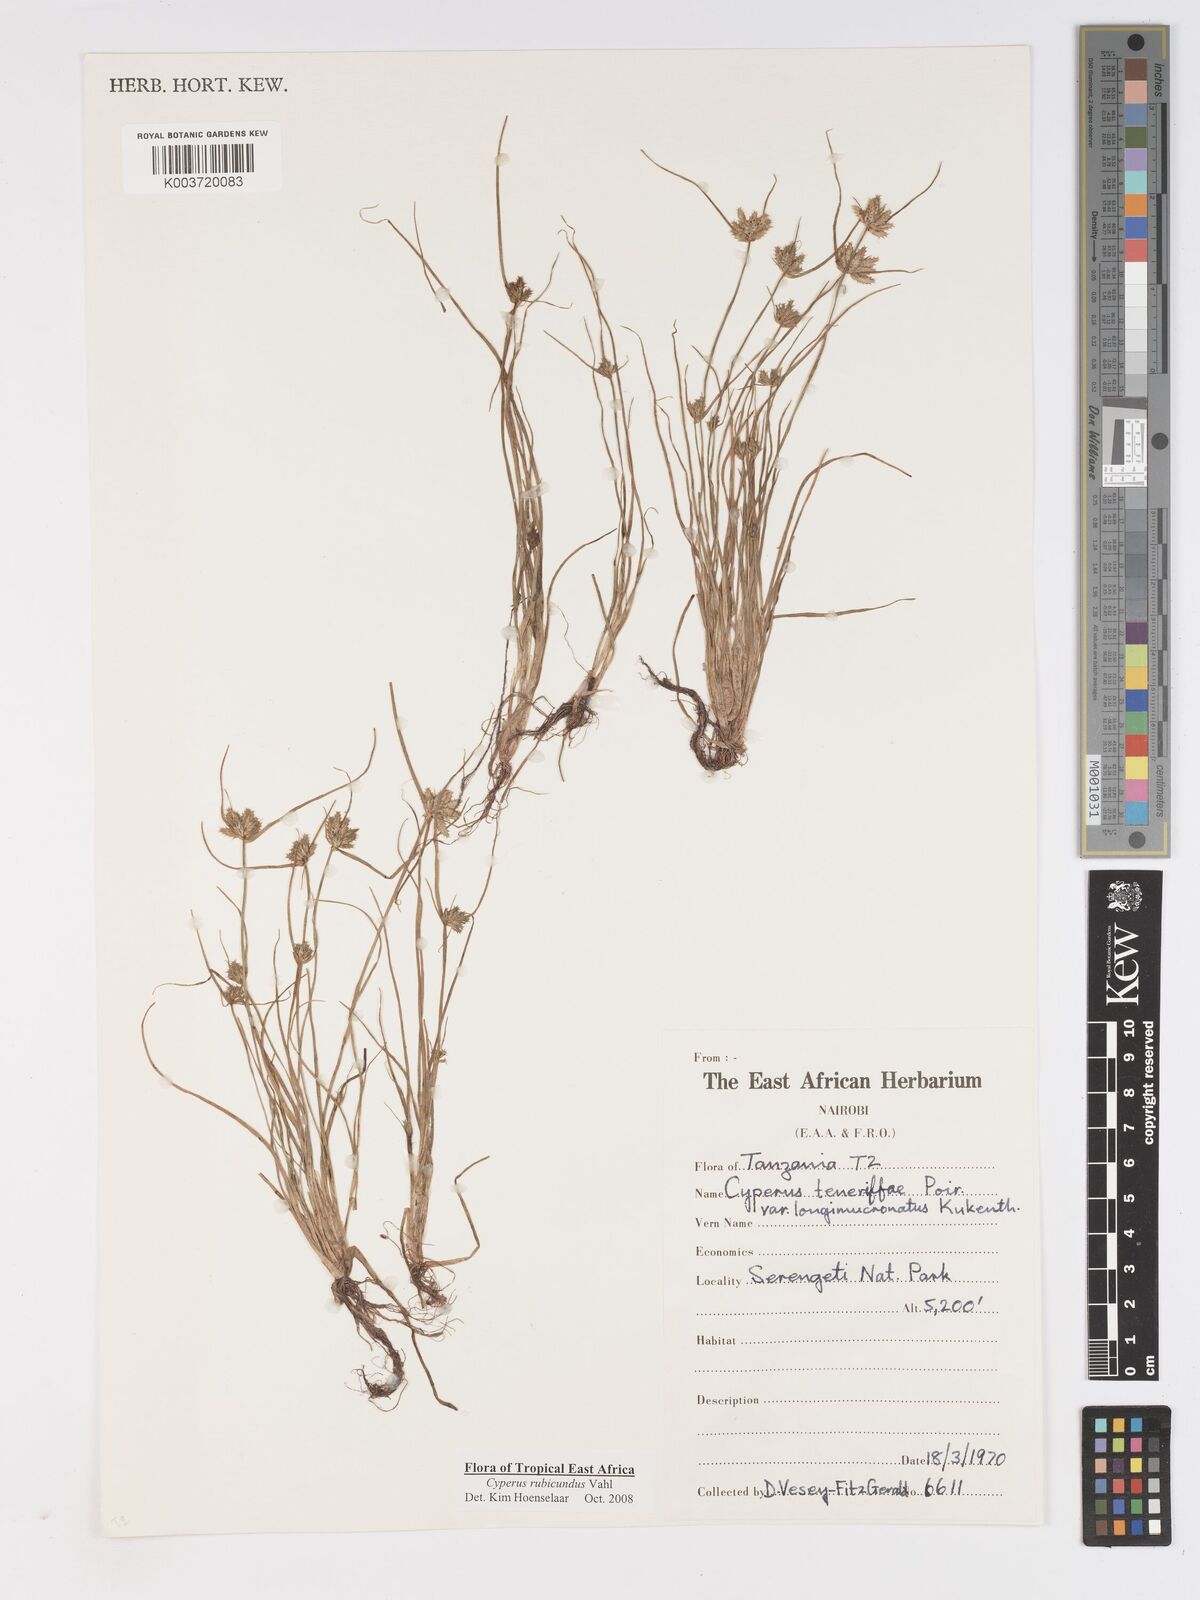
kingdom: Plantae
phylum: Tracheophyta
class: Liliopsida
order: Poales
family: Cyperaceae
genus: Cyperus
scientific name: Cyperus rubicundus
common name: Coco-grass
